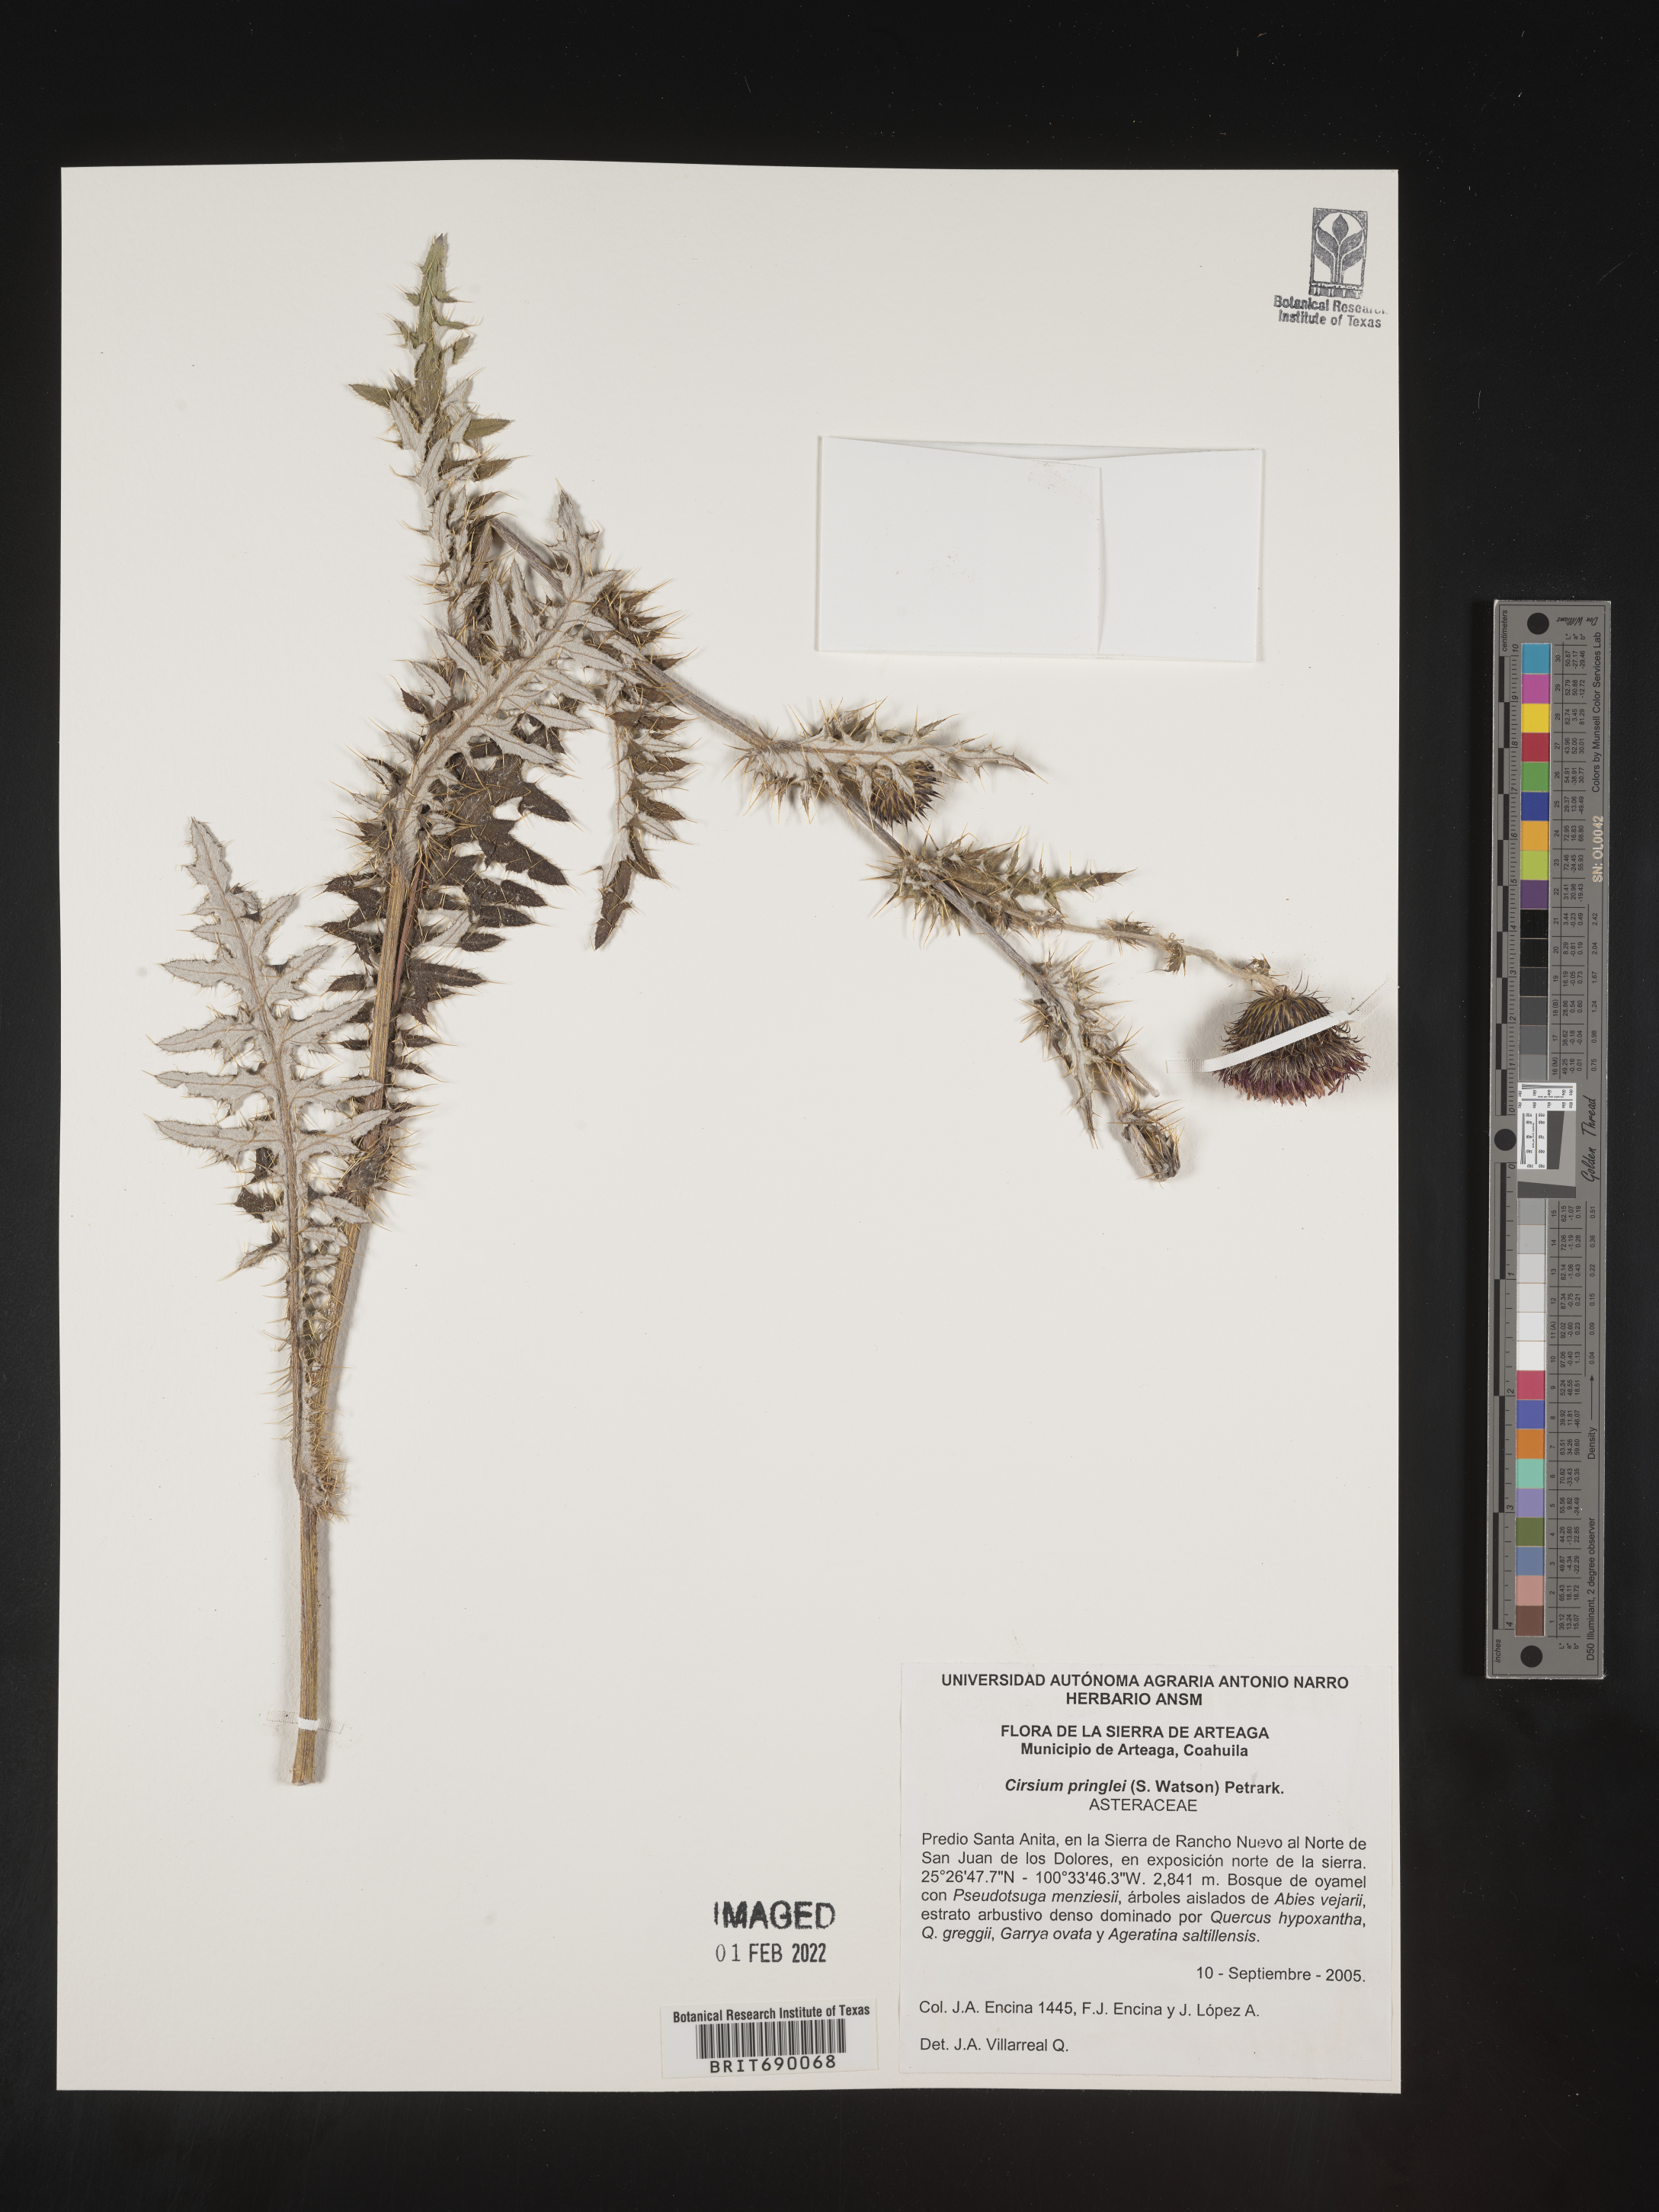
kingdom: Plantae
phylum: Tracheophyta
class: Magnoliopsida
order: Asterales
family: Asteraceae
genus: Cirsium
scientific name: Cirsium
